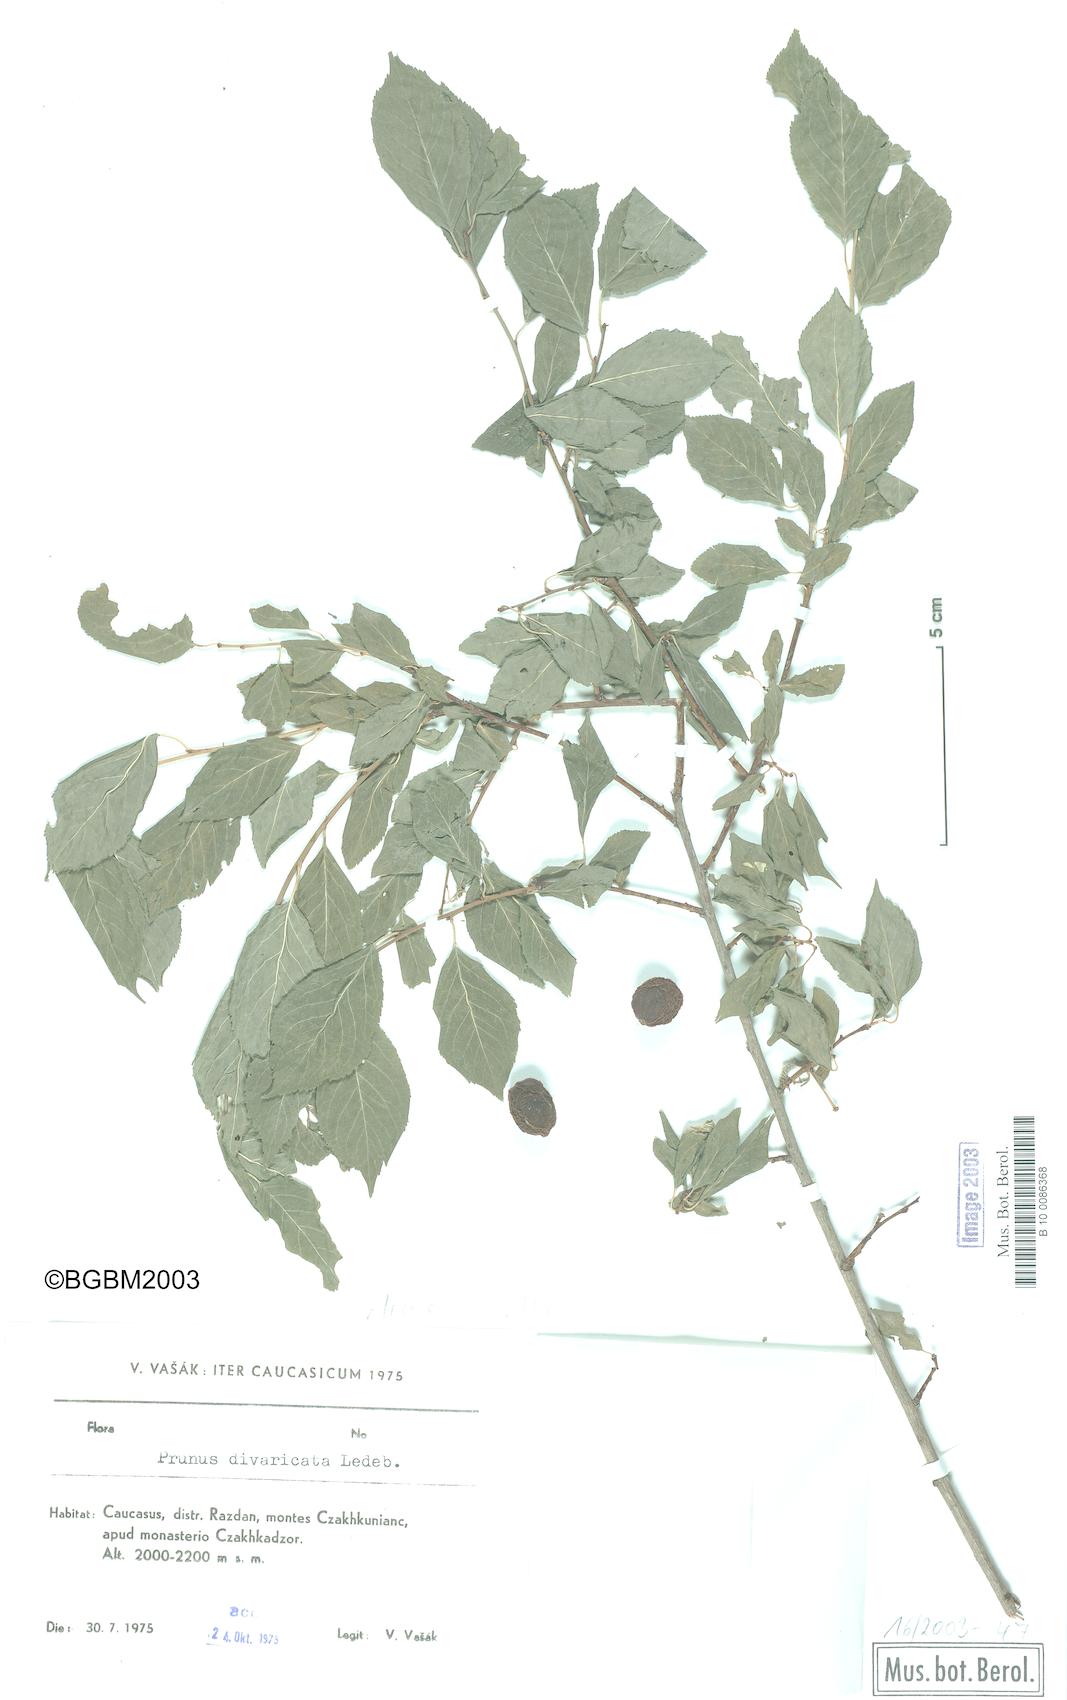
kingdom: Plantae
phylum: Tracheophyta
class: Magnoliopsida
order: Rosales
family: Rosaceae
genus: Prunus
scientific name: Prunus cerasifera
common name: Cherry plum
